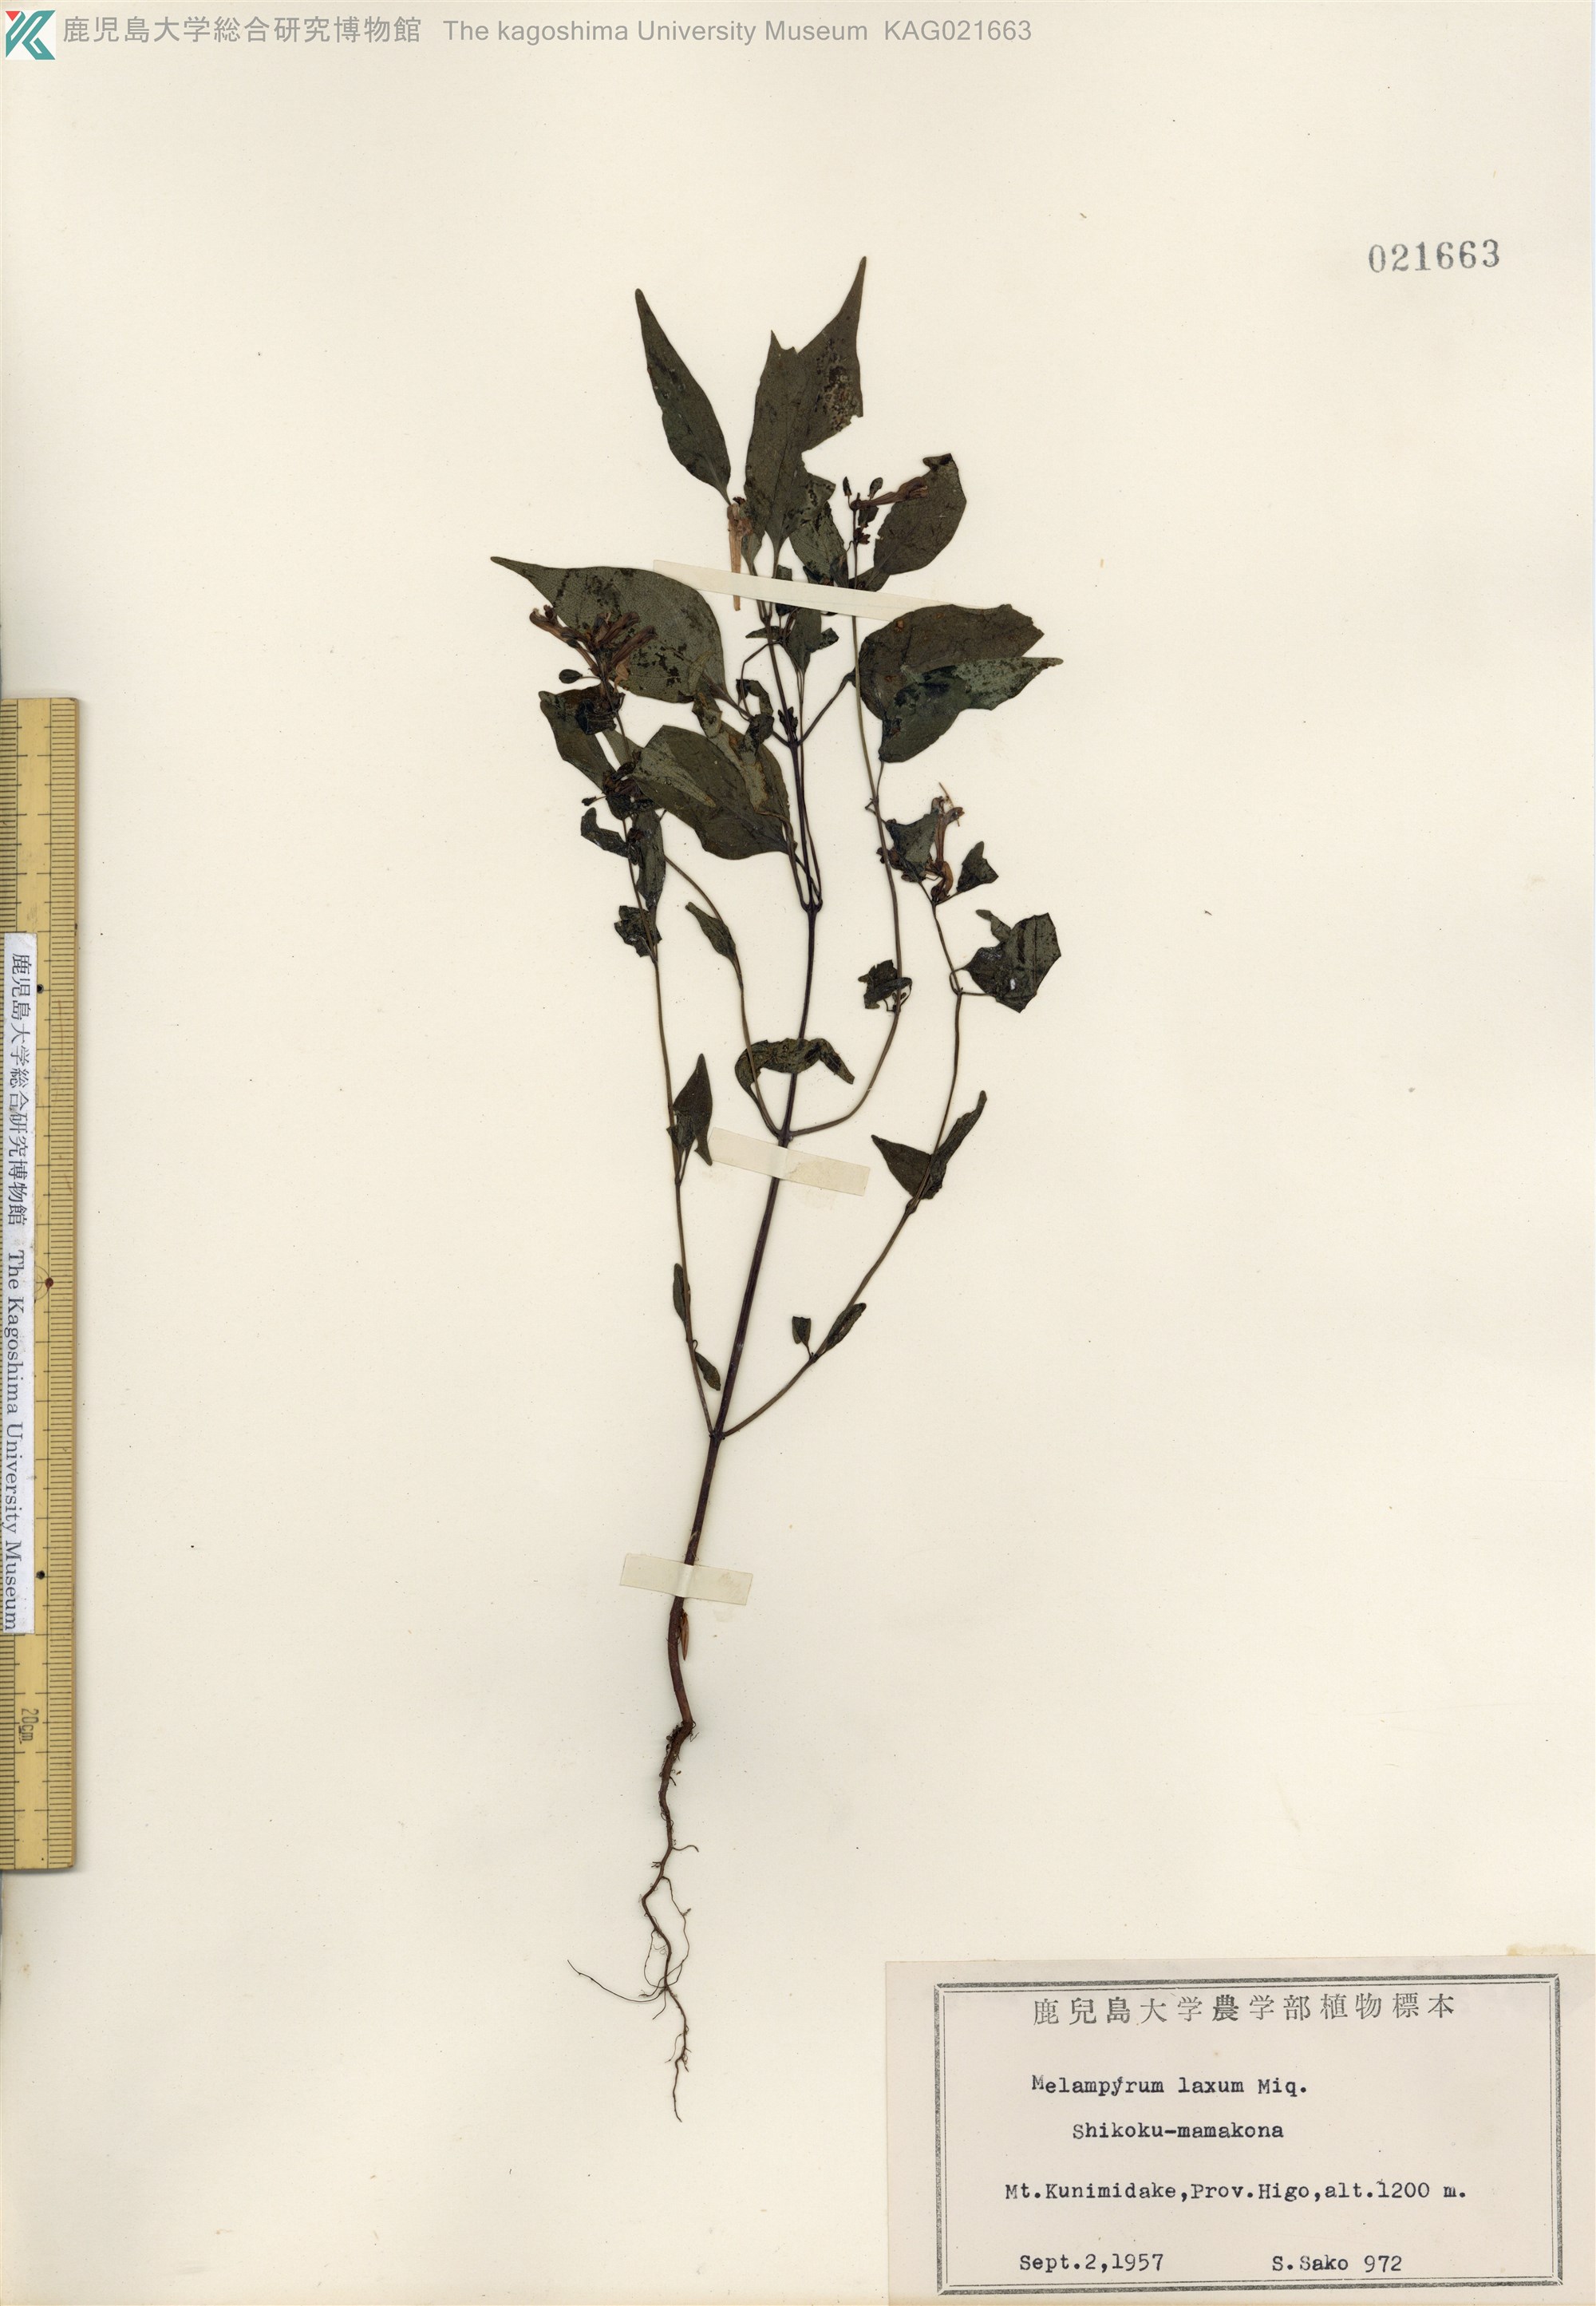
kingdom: Plantae
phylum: Tracheophyta
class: Magnoliopsida
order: Lamiales
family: Orobanchaceae
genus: Melampyrum
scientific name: Melampyrum laxum
